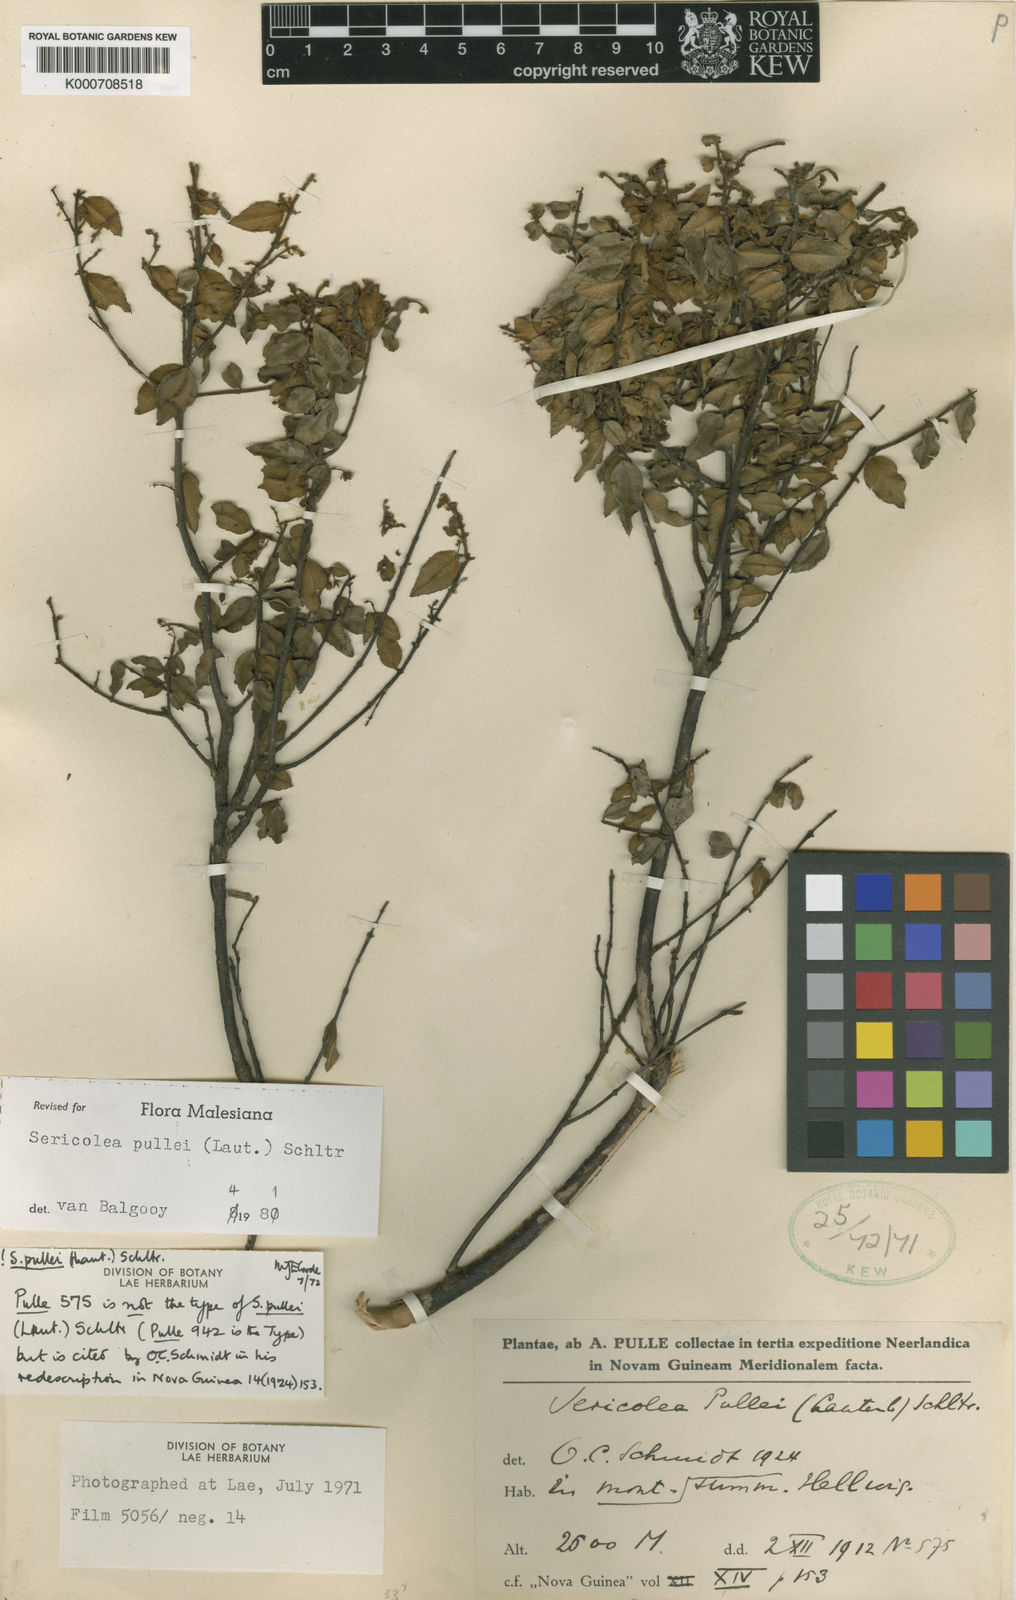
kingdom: Plantae
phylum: Tracheophyta
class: Magnoliopsida
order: Oxalidales
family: Elaeocarpaceae
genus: Sericolea
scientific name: Sericolea pullei
